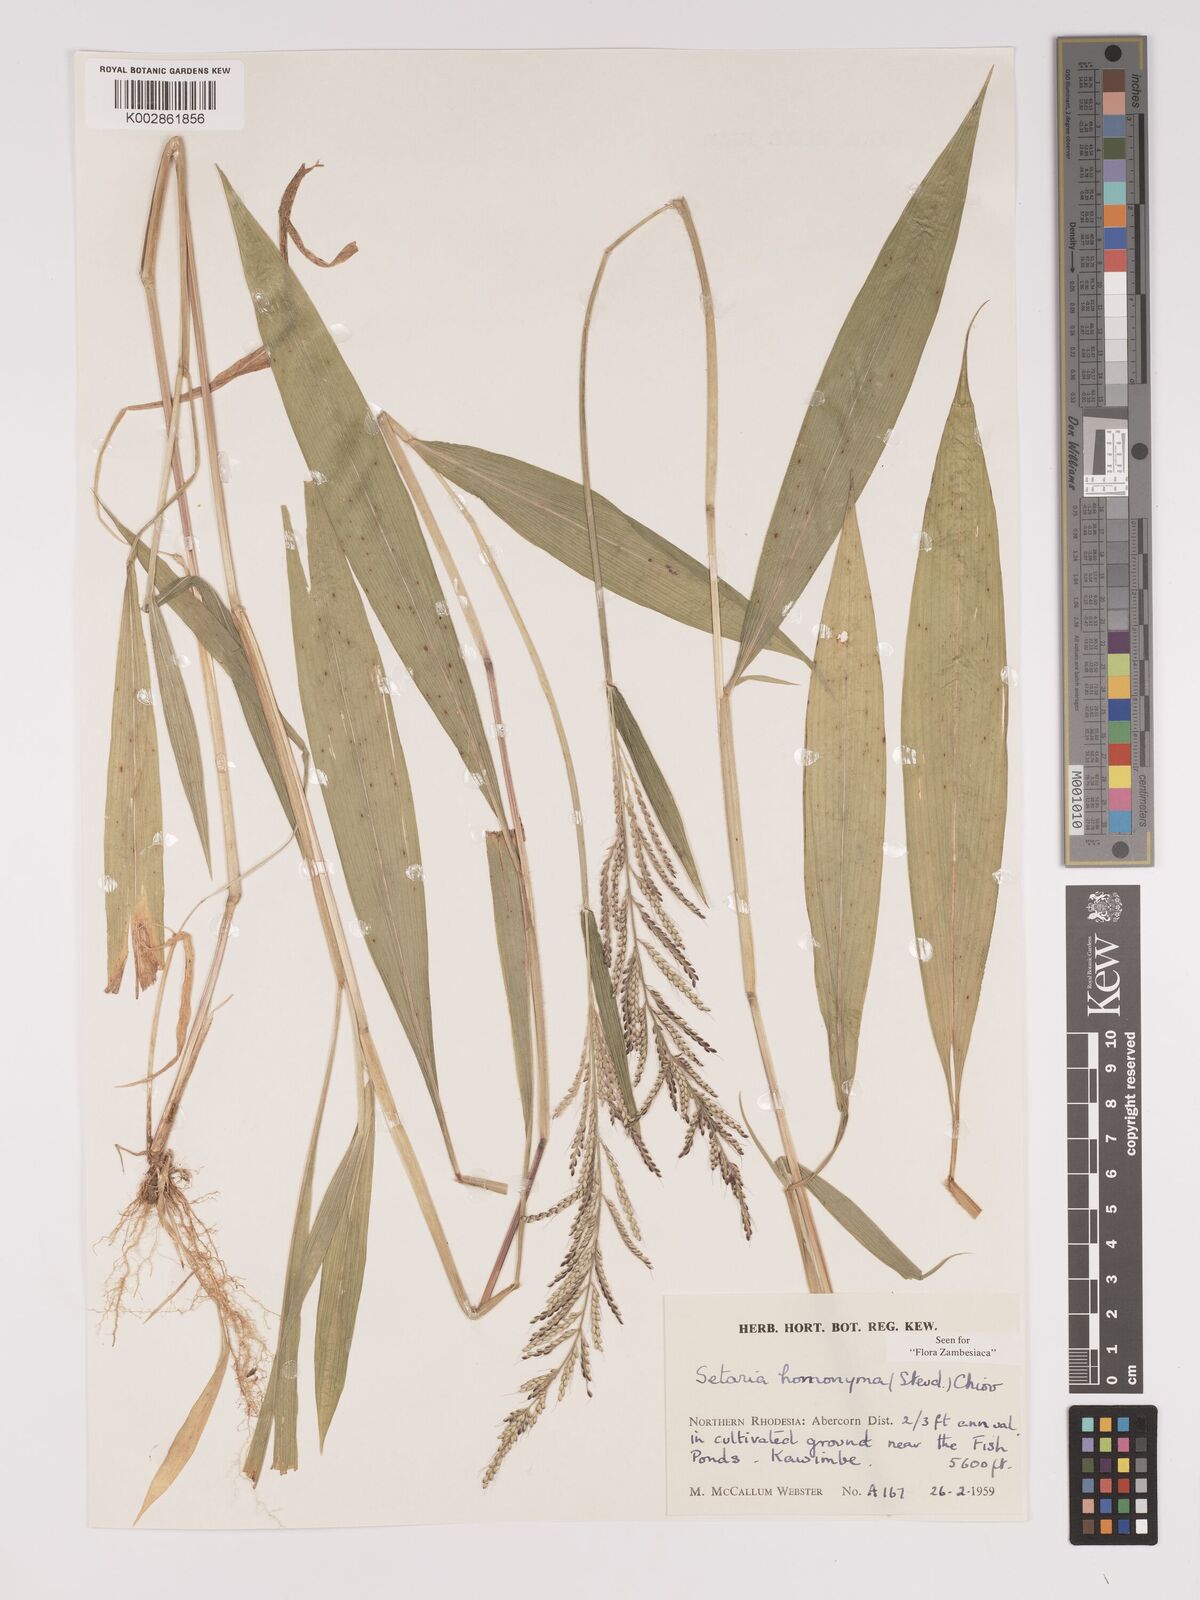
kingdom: Plantae
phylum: Tracheophyta
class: Liliopsida
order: Poales
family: Poaceae
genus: Setaria
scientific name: Setaria homonyma
